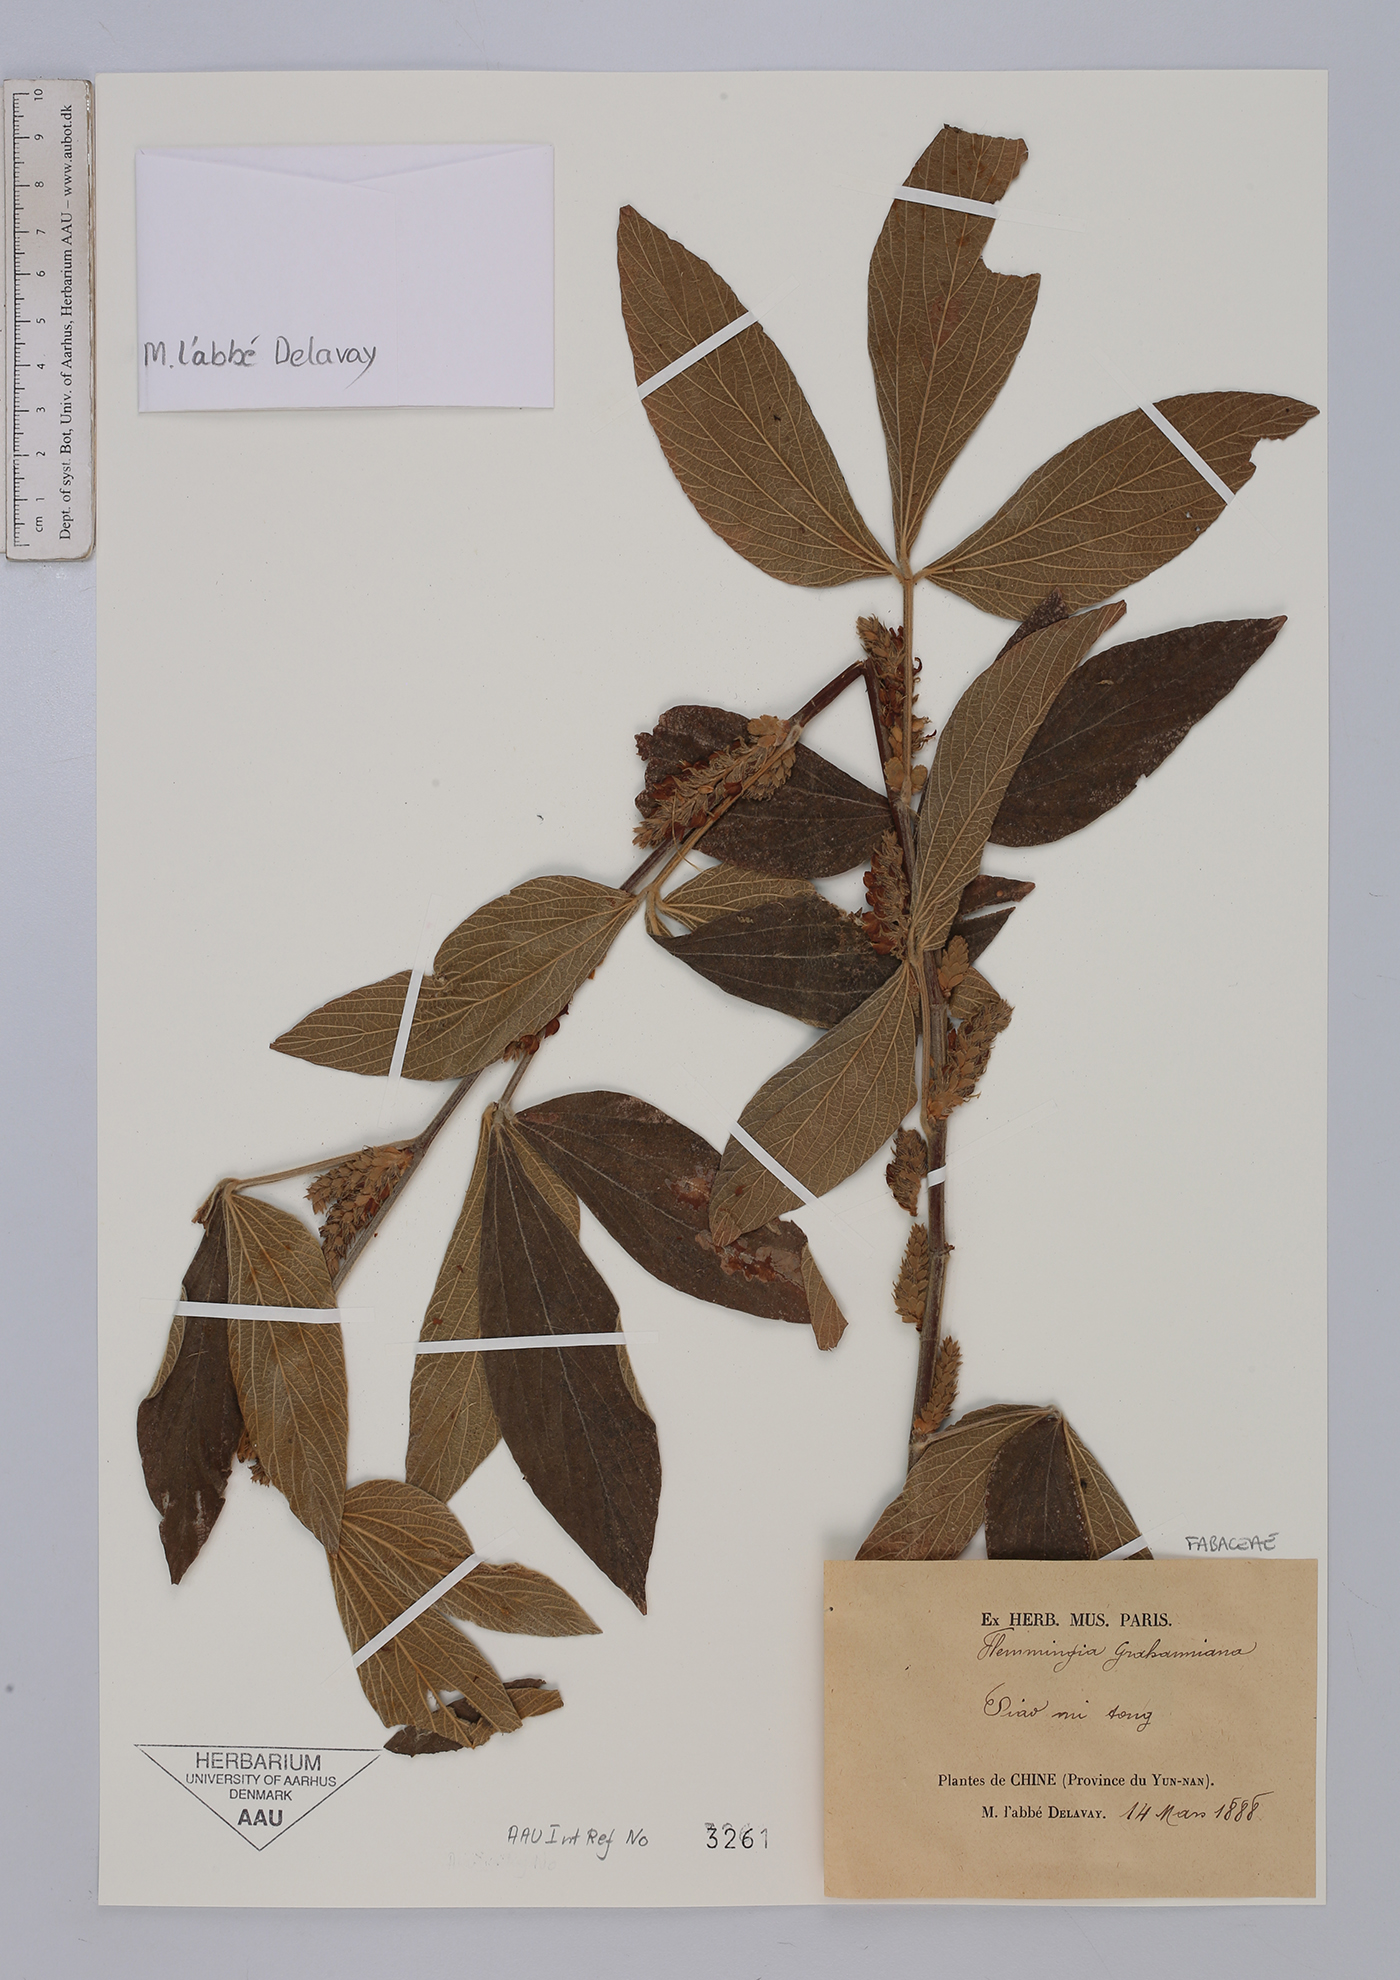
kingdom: Plantae
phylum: Tracheophyta
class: Magnoliopsida
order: Fabales
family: Fabaceae
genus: Flemingia
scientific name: Flemingia grahamiana
